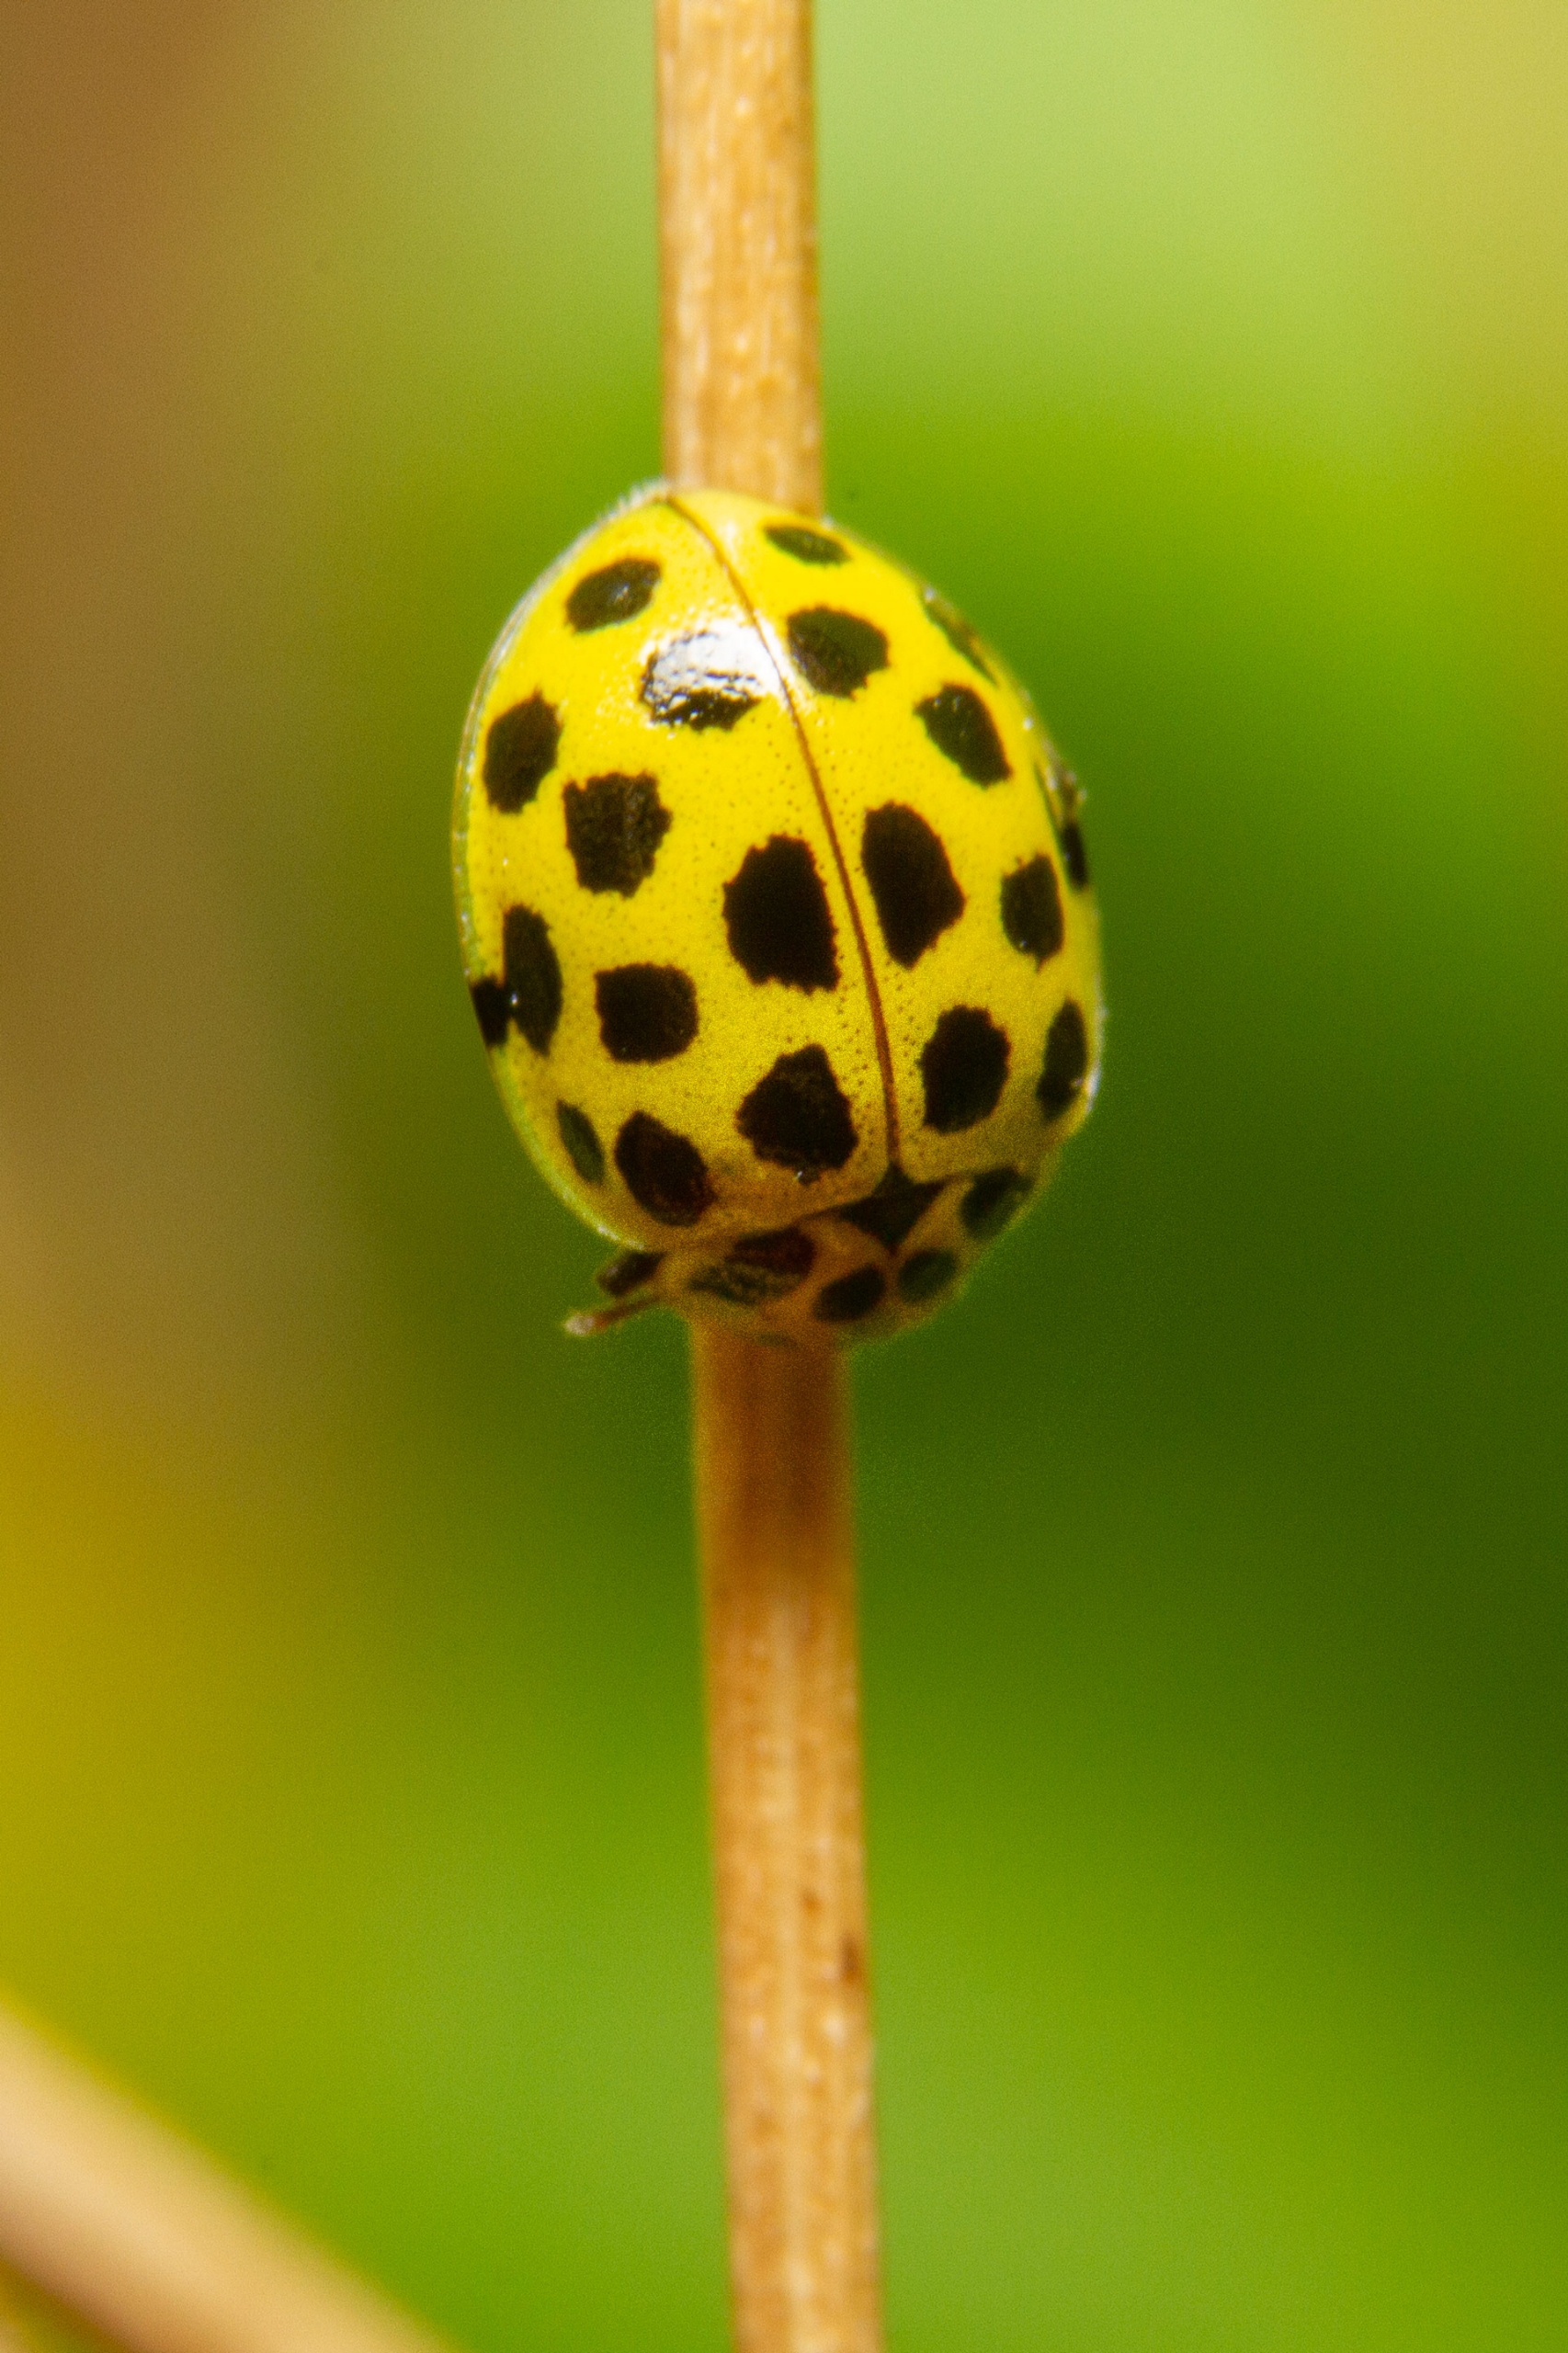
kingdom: Animalia
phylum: Arthropoda
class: Insecta
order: Coleoptera
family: Coccinellidae
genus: Psyllobora
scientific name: Psyllobora vigintiduopunctata
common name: Toogtyveplettet mariehøne
